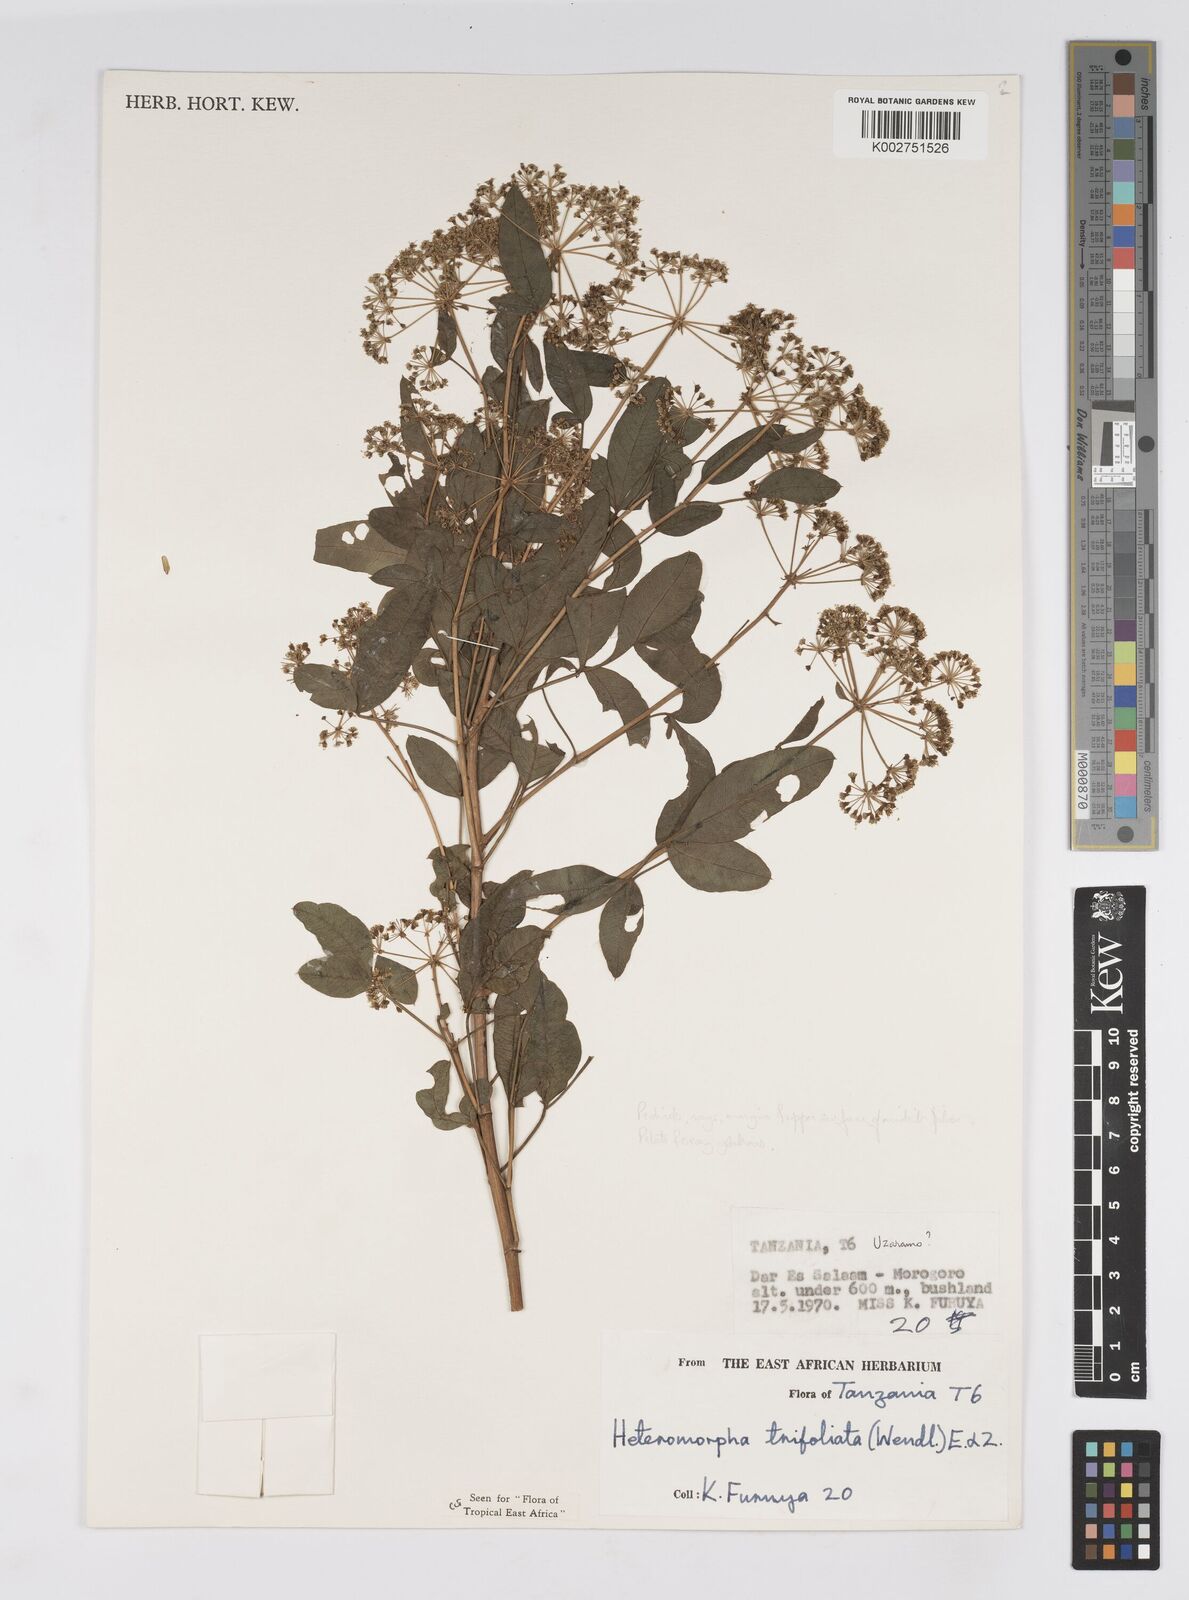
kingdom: Plantae
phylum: Tracheophyta
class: Magnoliopsida
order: Apiales
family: Apiaceae
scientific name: Apiaceae
